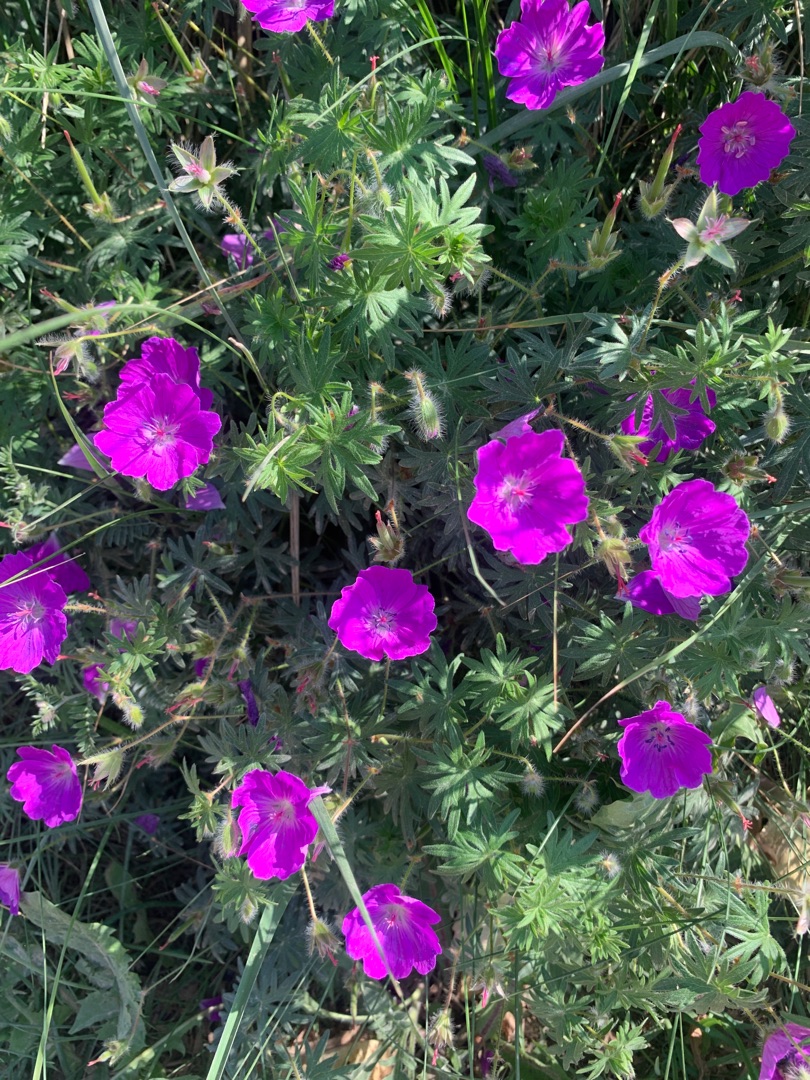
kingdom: Plantae
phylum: Tracheophyta
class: Magnoliopsida
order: Geraniales
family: Geraniaceae
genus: Geranium
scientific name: Geranium sanguineum
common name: Blodrød storkenæb
